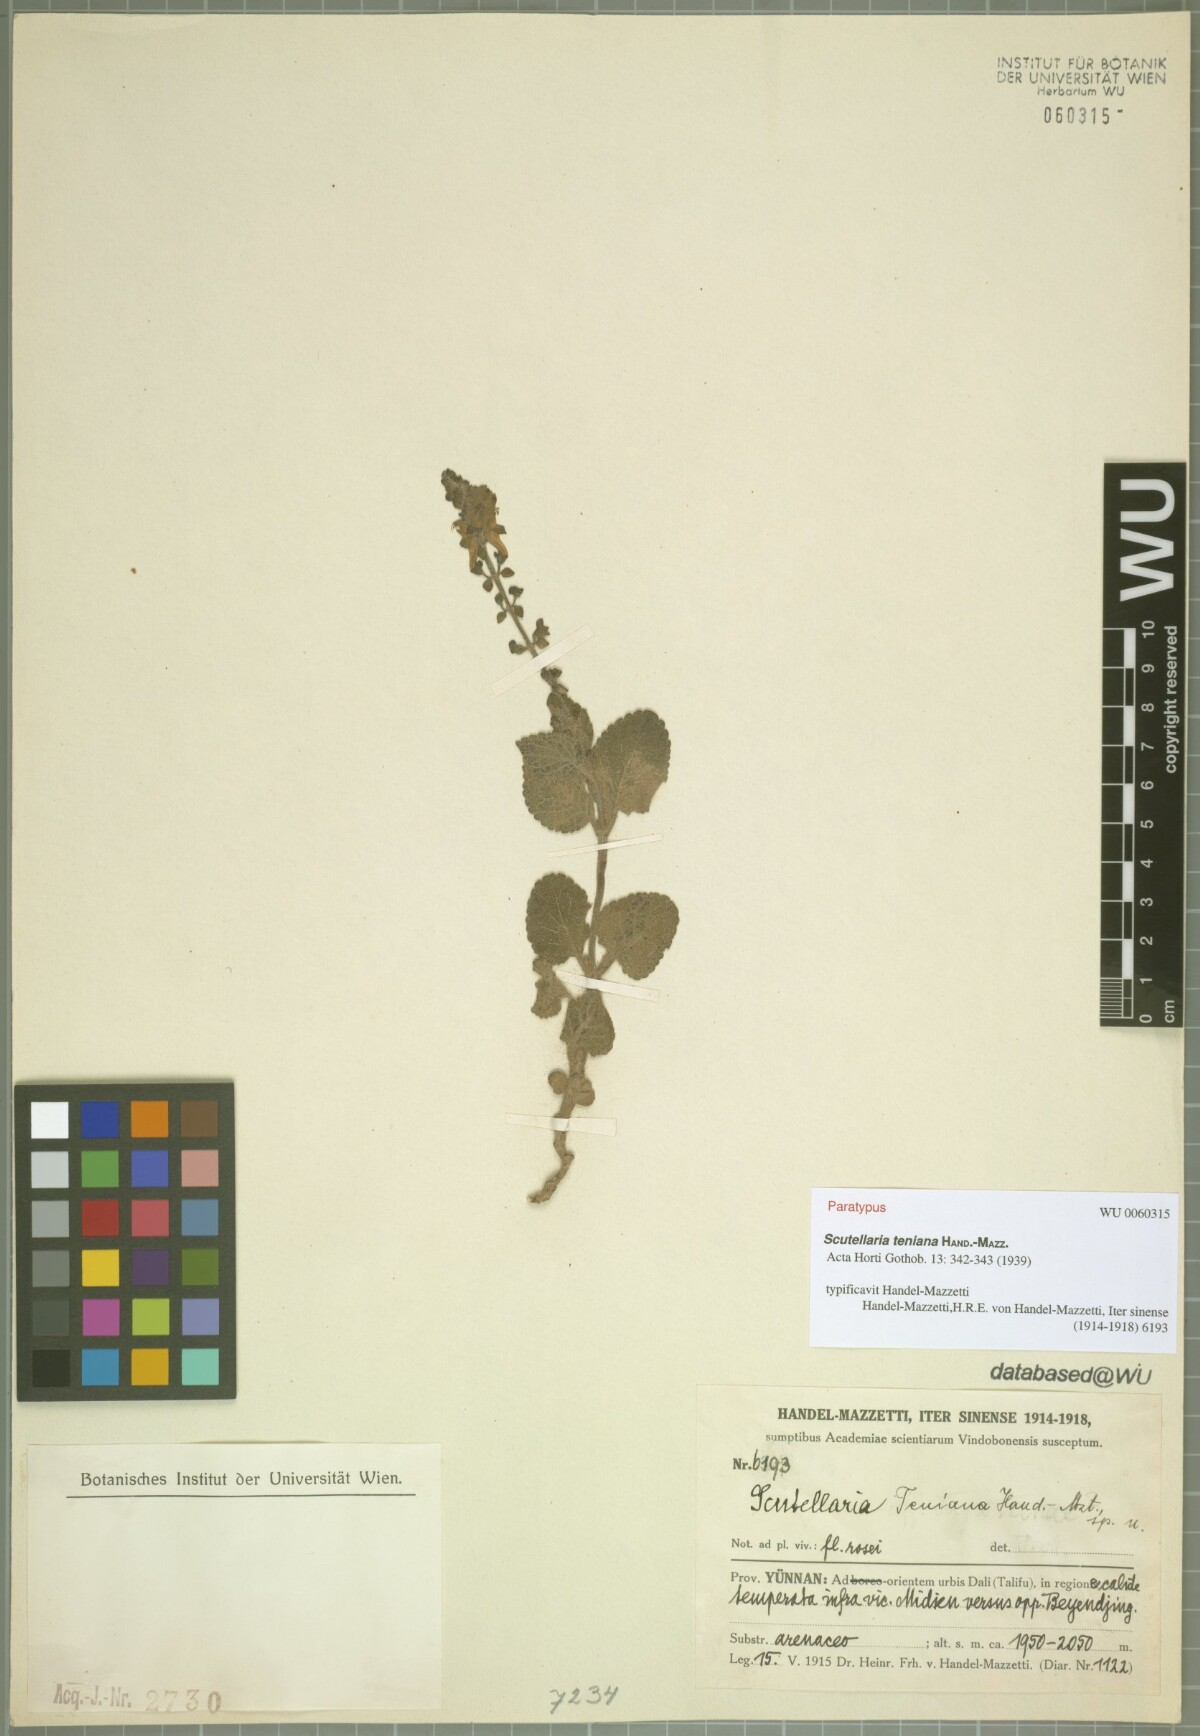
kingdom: Plantae
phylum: Tracheophyta
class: Magnoliopsida
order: Lamiales
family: Lamiaceae
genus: Scutellaria
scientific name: Scutellaria teniana
